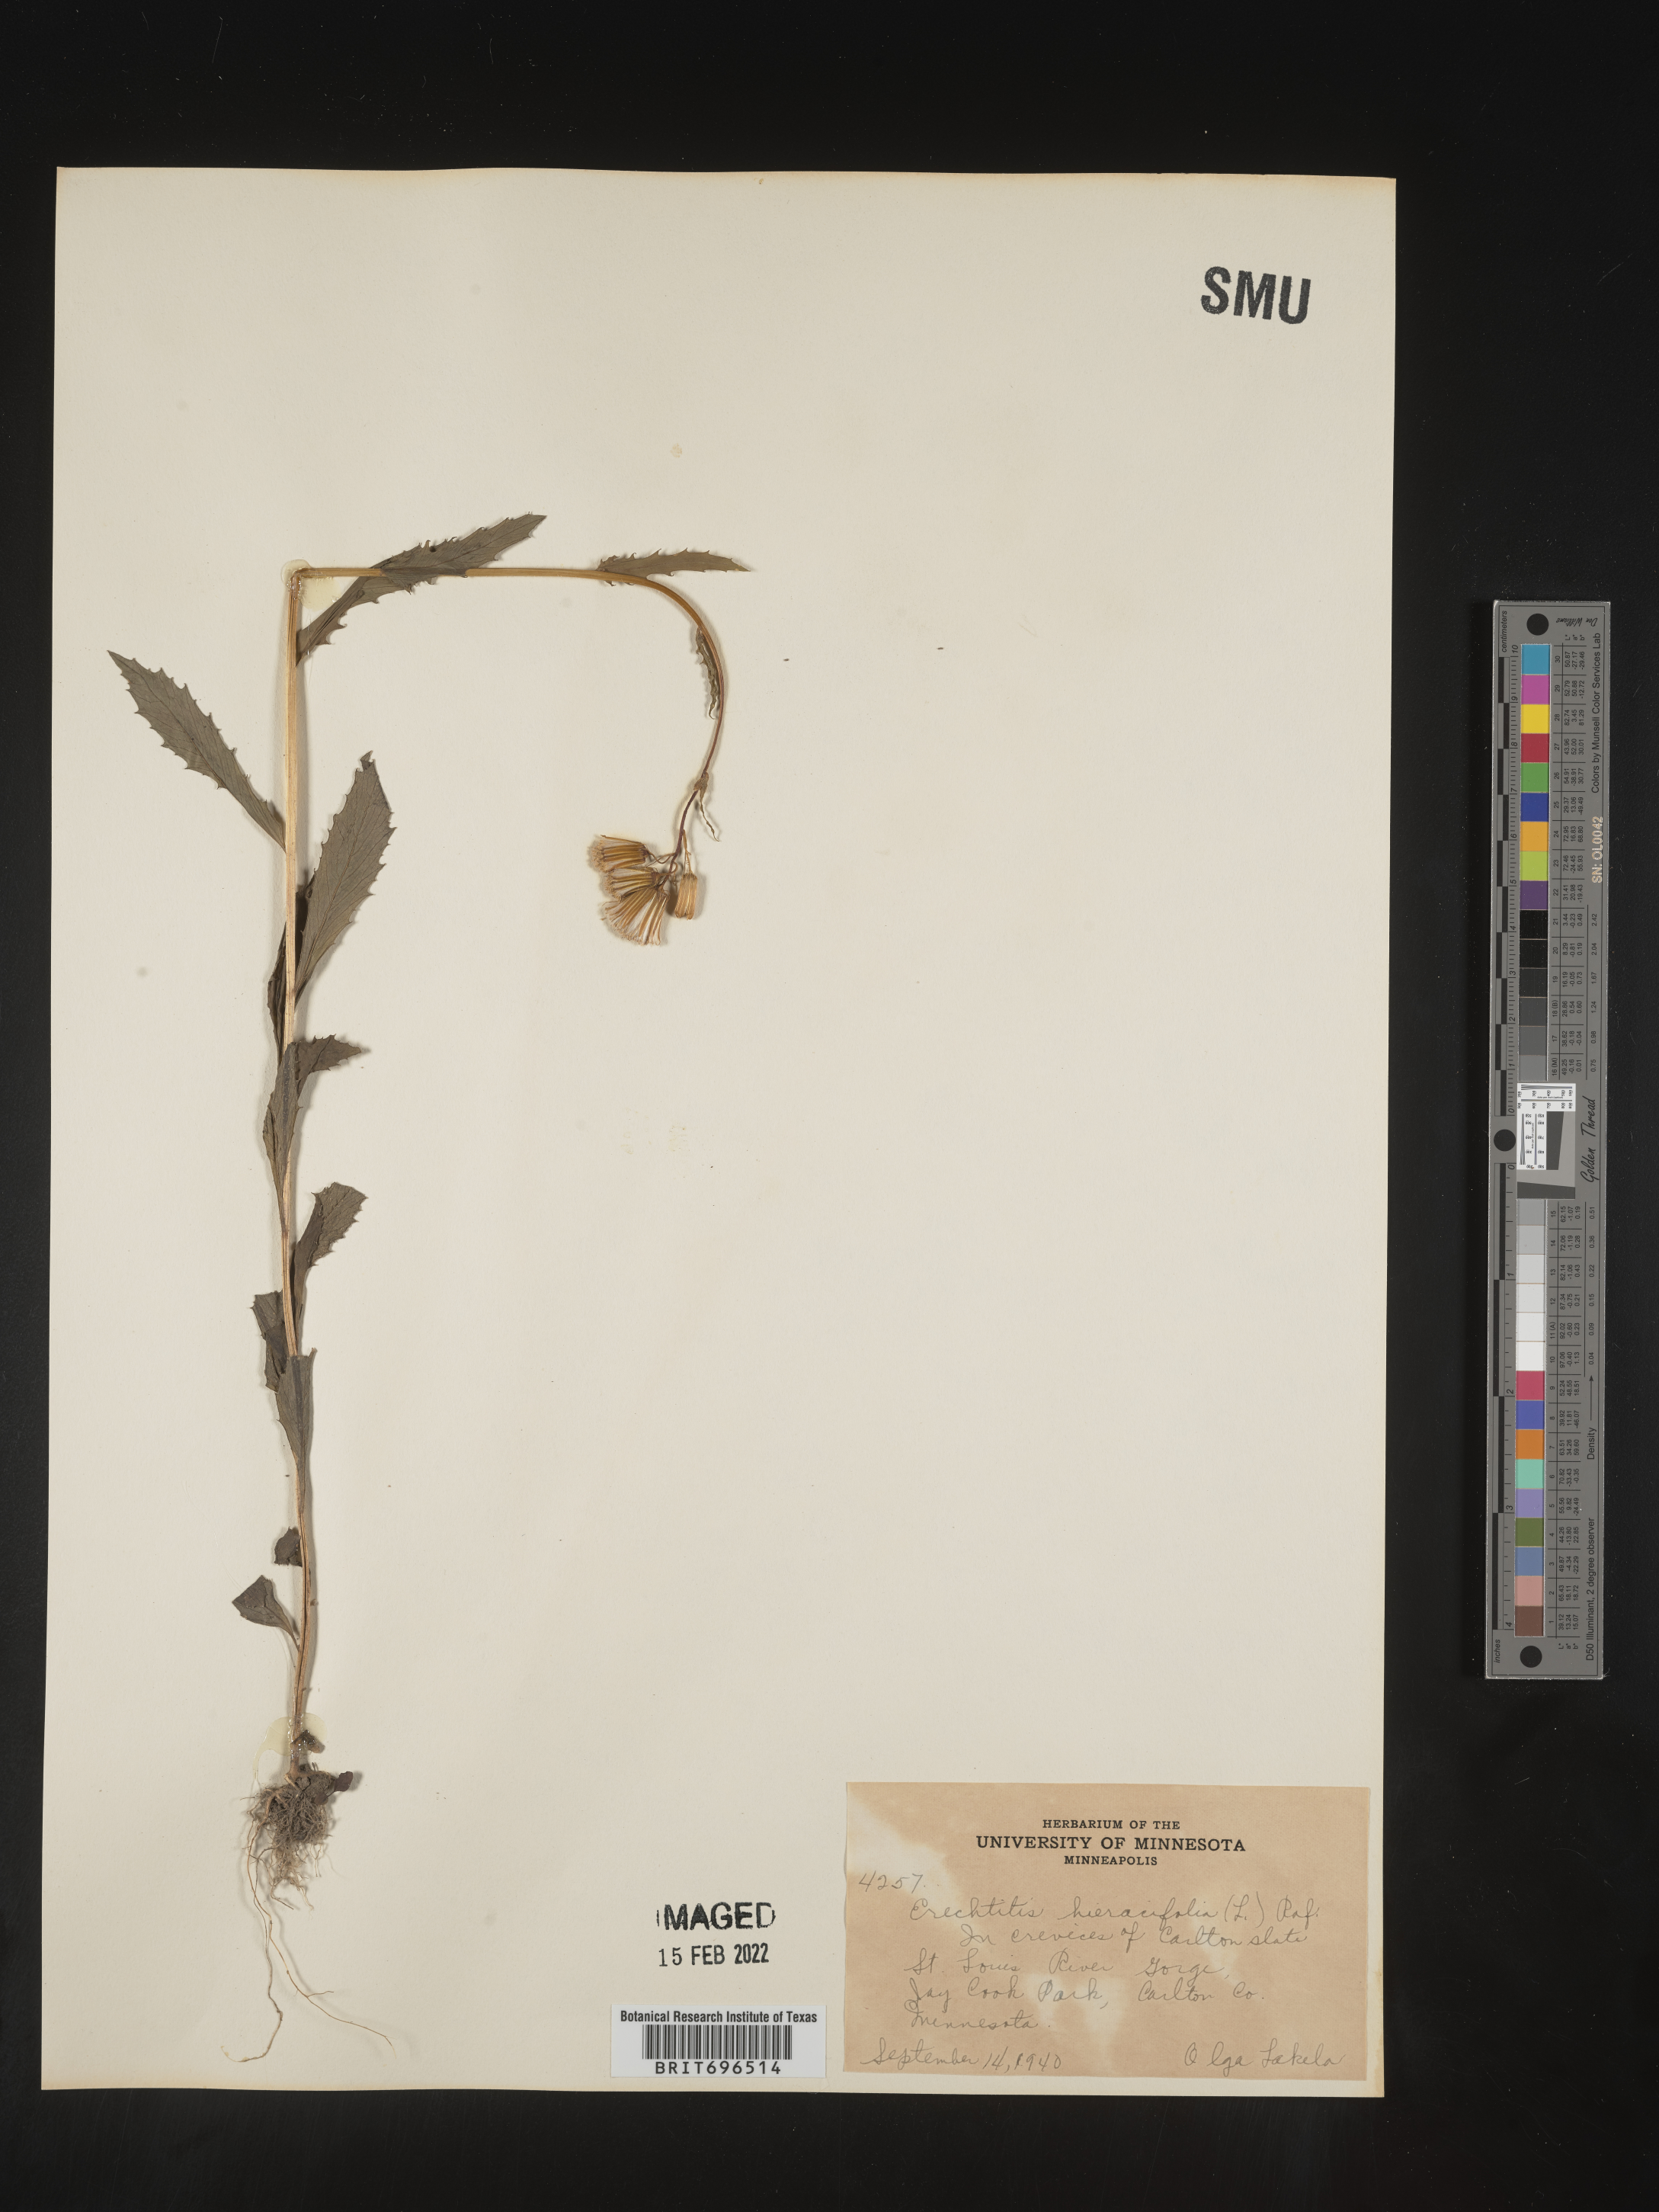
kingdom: Plantae
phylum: Tracheophyta
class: Magnoliopsida
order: Asterales
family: Asteraceae
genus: Erechtites
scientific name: Erechtites hieraciifolius
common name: American burnweed
